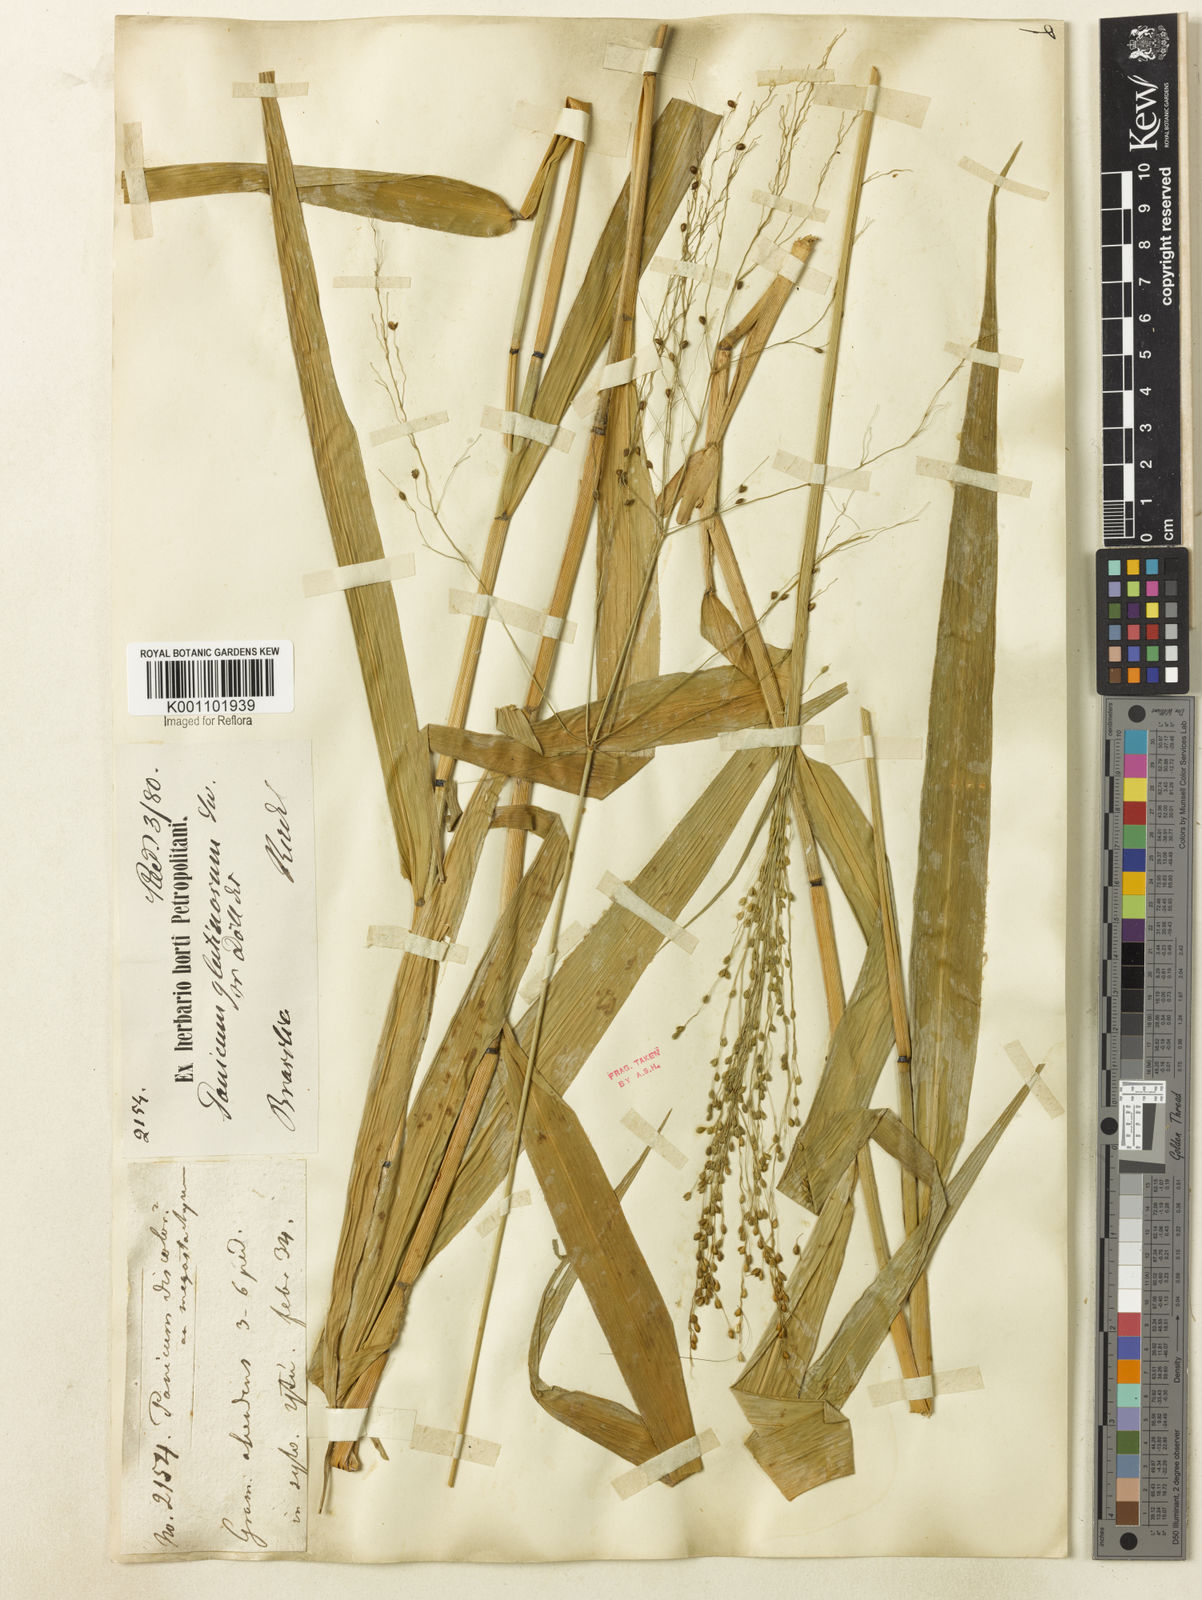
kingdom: Plantae
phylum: Tracheophyta
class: Liliopsida
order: Poales
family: Poaceae
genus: Homolepis
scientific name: Homolepis glutinosa
